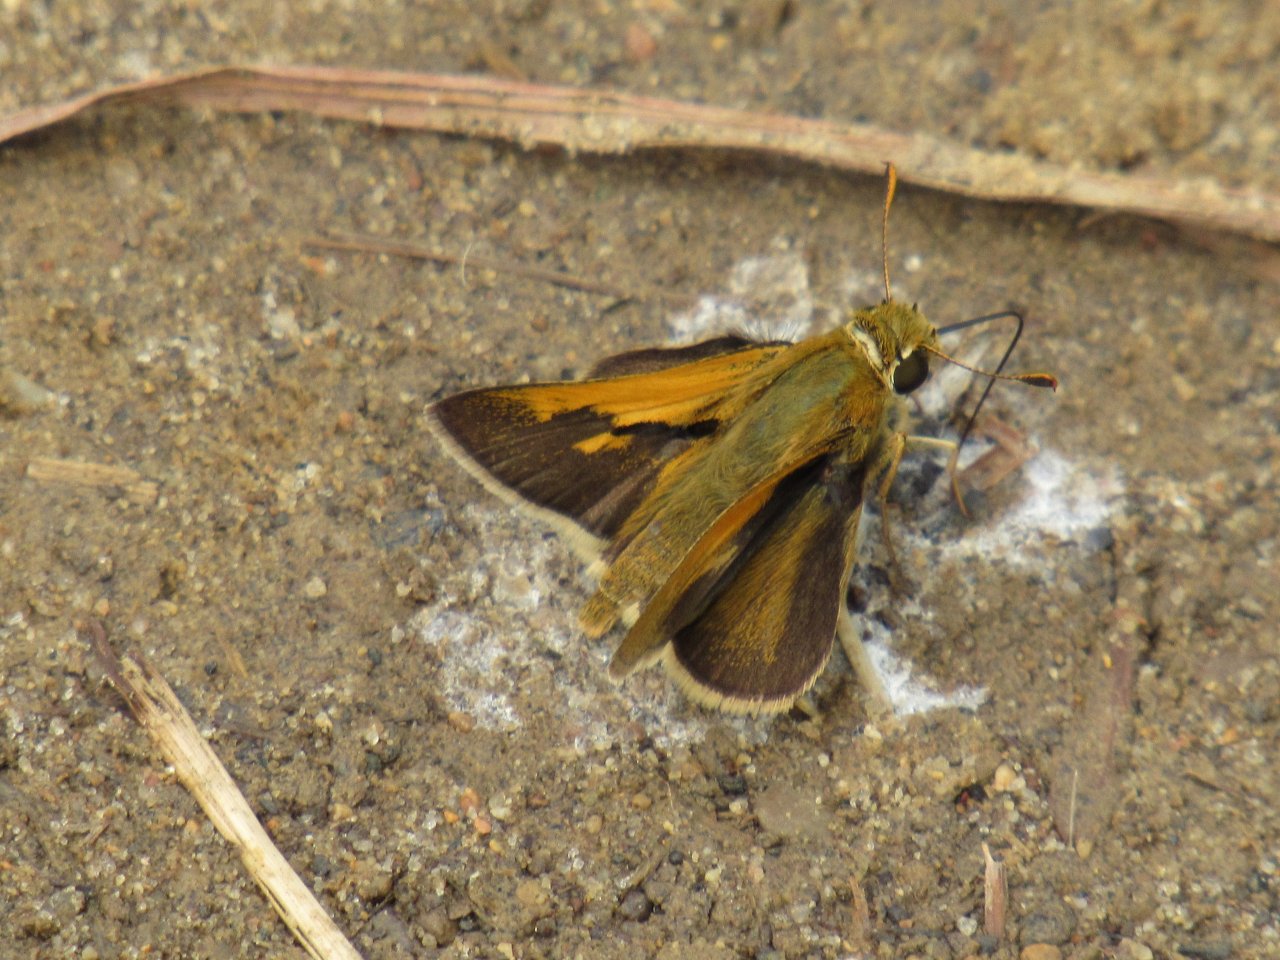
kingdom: Animalia
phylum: Arthropoda
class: Insecta
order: Lepidoptera
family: Hesperiidae
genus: Polites
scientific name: Polites themistocles
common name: Tawny-edged Skipper
